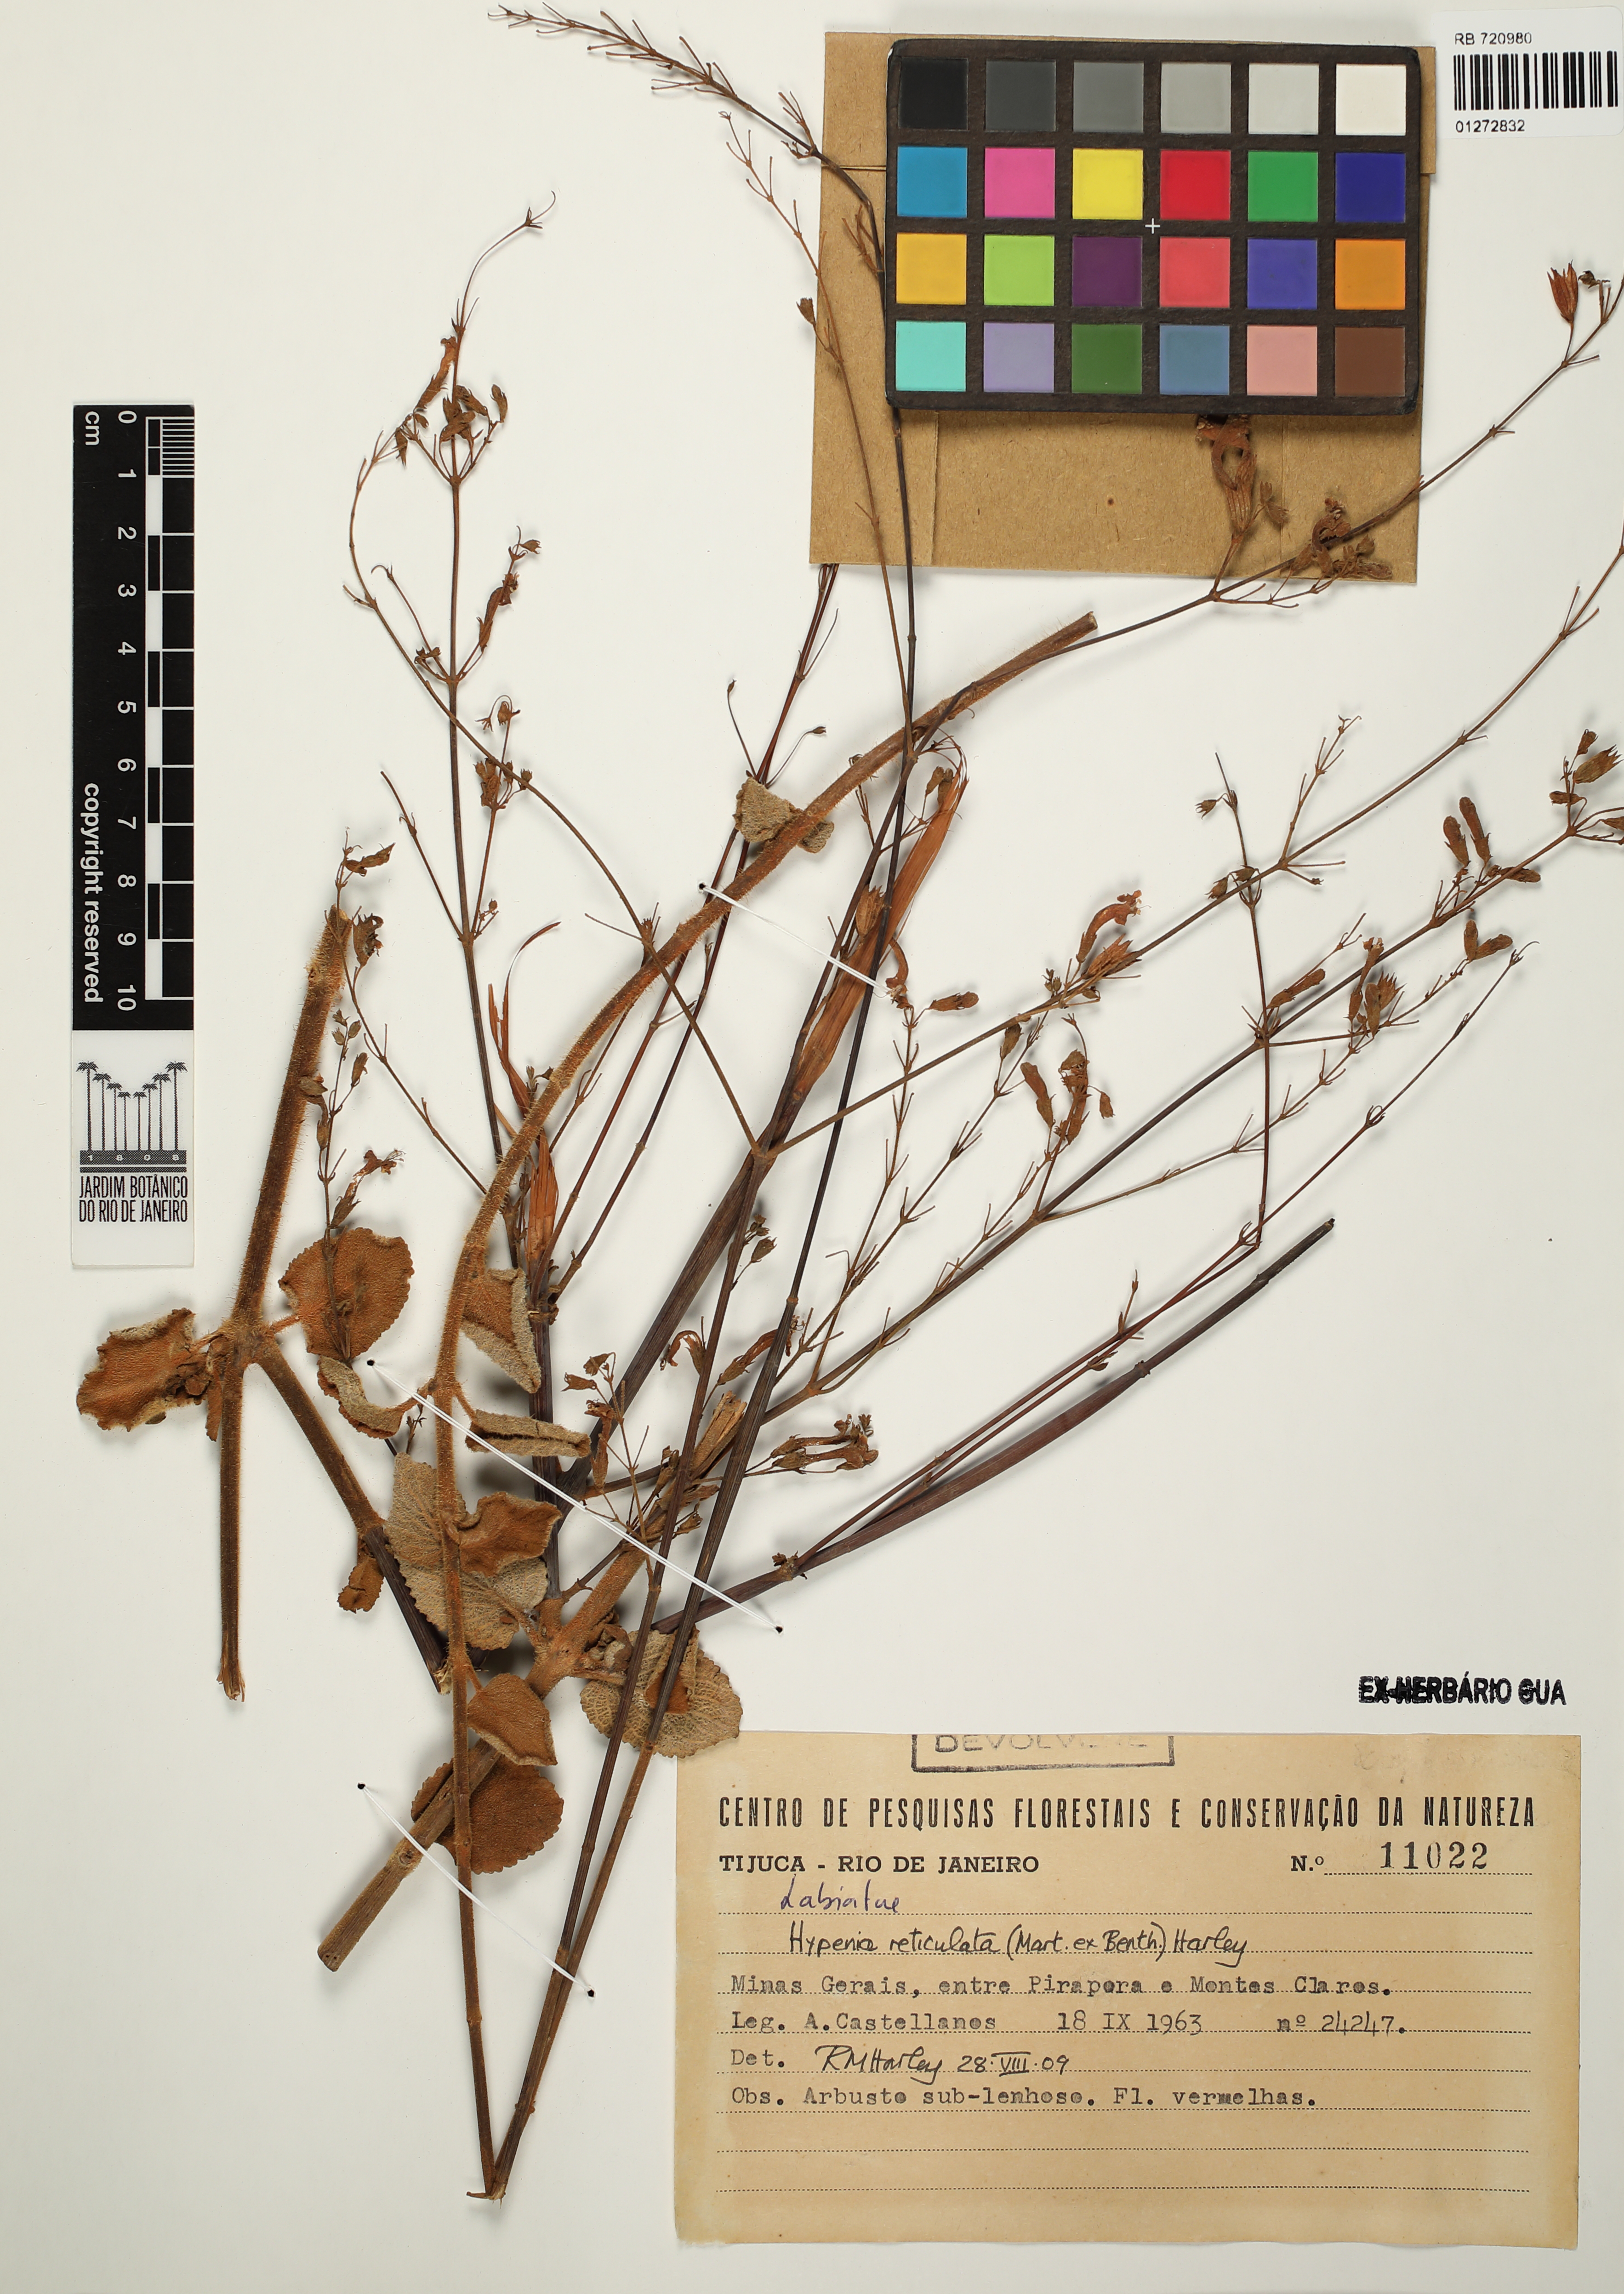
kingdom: Plantae
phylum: Tracheophyta
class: Magnoliopsida
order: Lamiales
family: Lamiaceae
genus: Hypenia
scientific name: Hypenia reticulata
